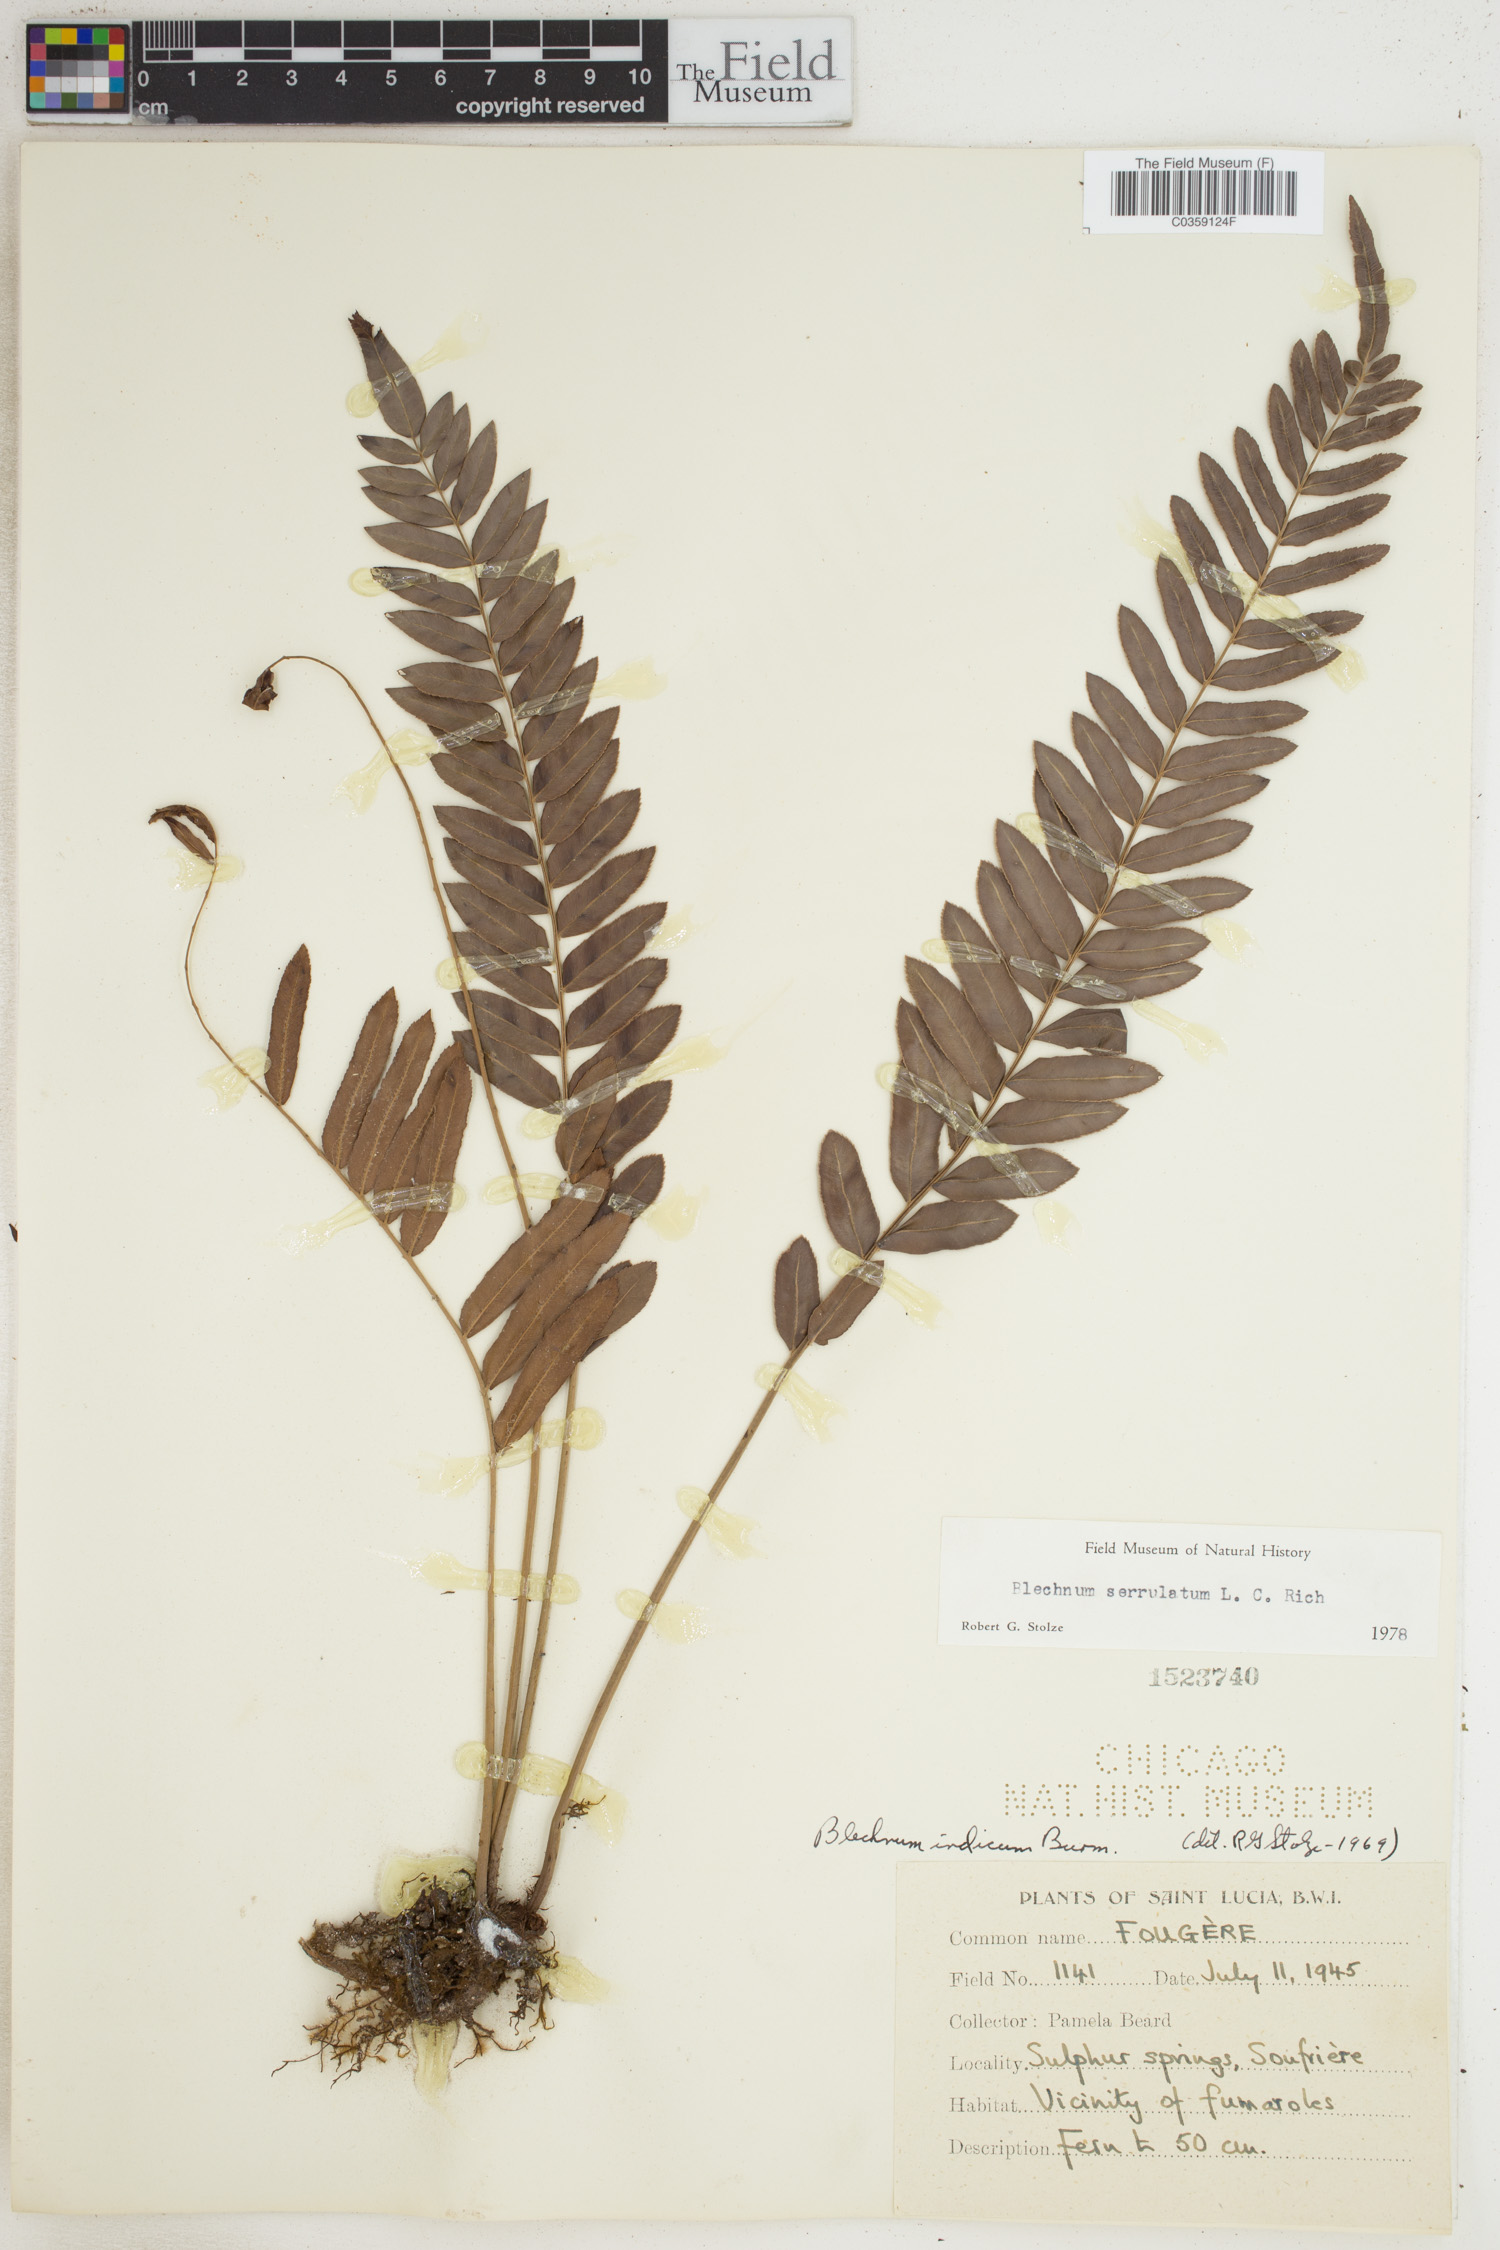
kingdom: Plantae
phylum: Tracheophyta
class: Polypodiopsida
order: Polypodiales
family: Blechnaceae
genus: Telmatoblechnum
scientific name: Telmatoblechnum serrulatum
